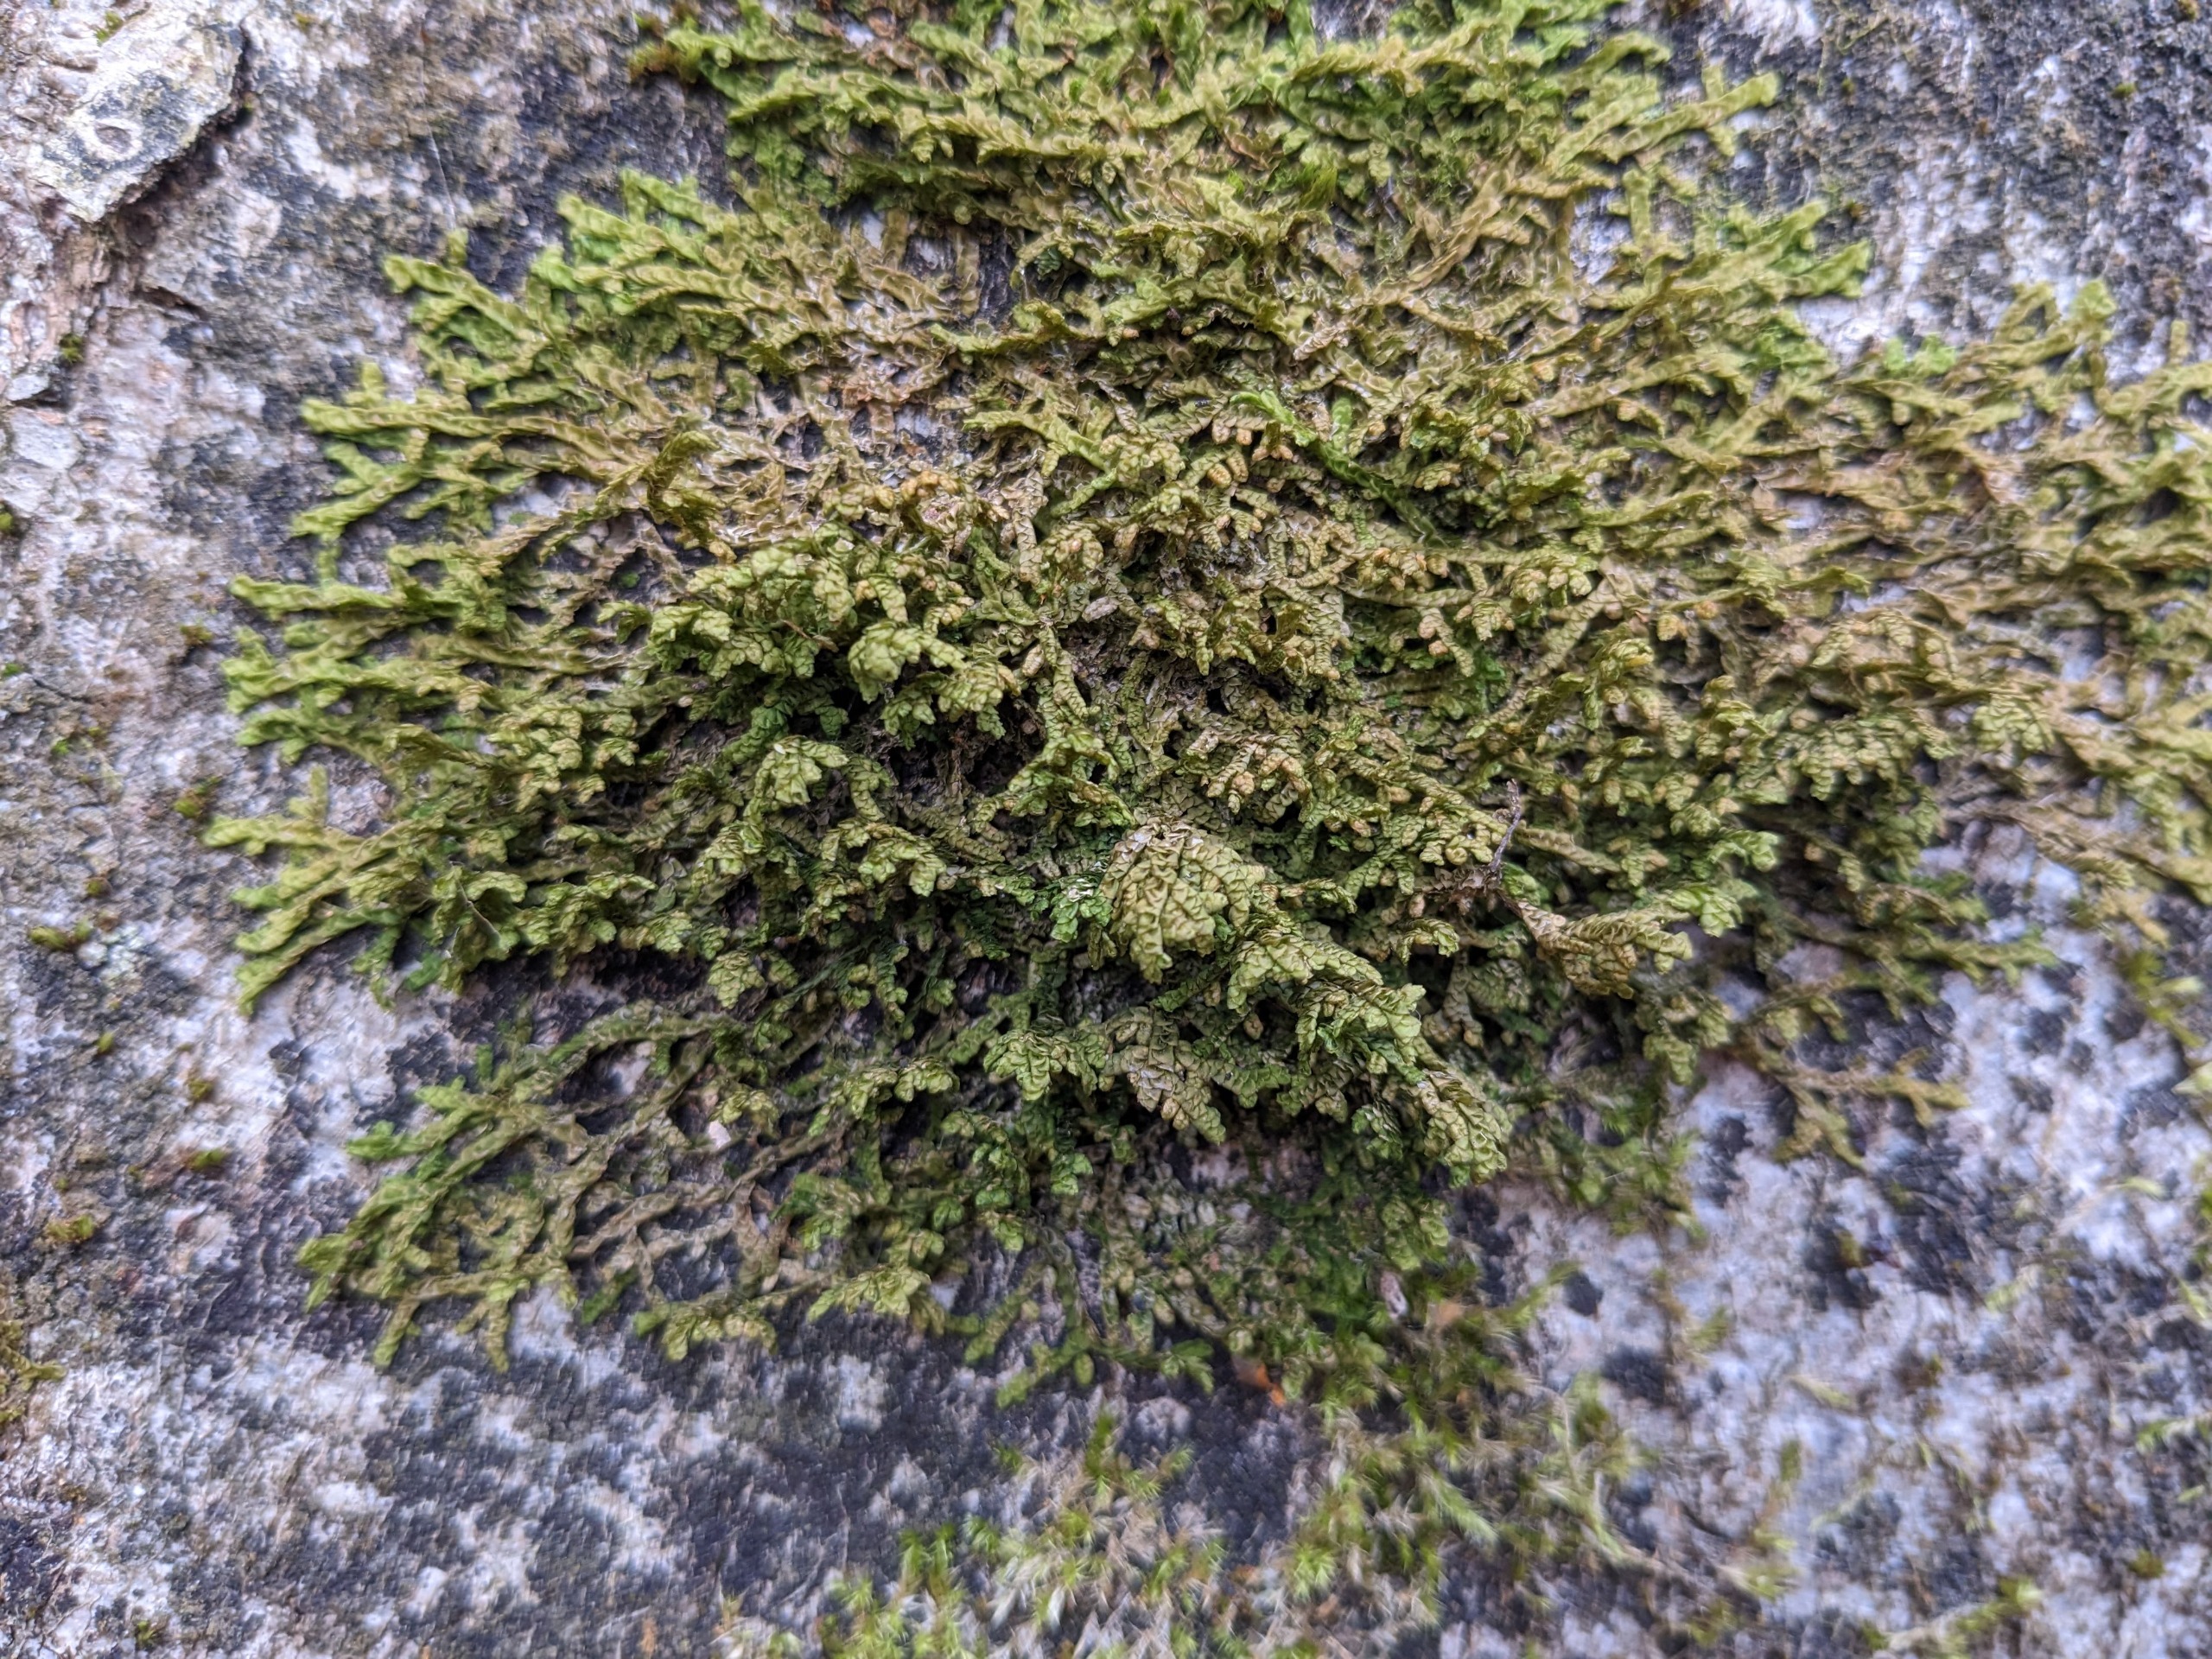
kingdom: Plantae
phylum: Marchantiophyta
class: Jungermanniopsida
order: Porellales
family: Porellaceae
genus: Porella
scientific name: Porella platyphylla
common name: Almindelig skælryg
